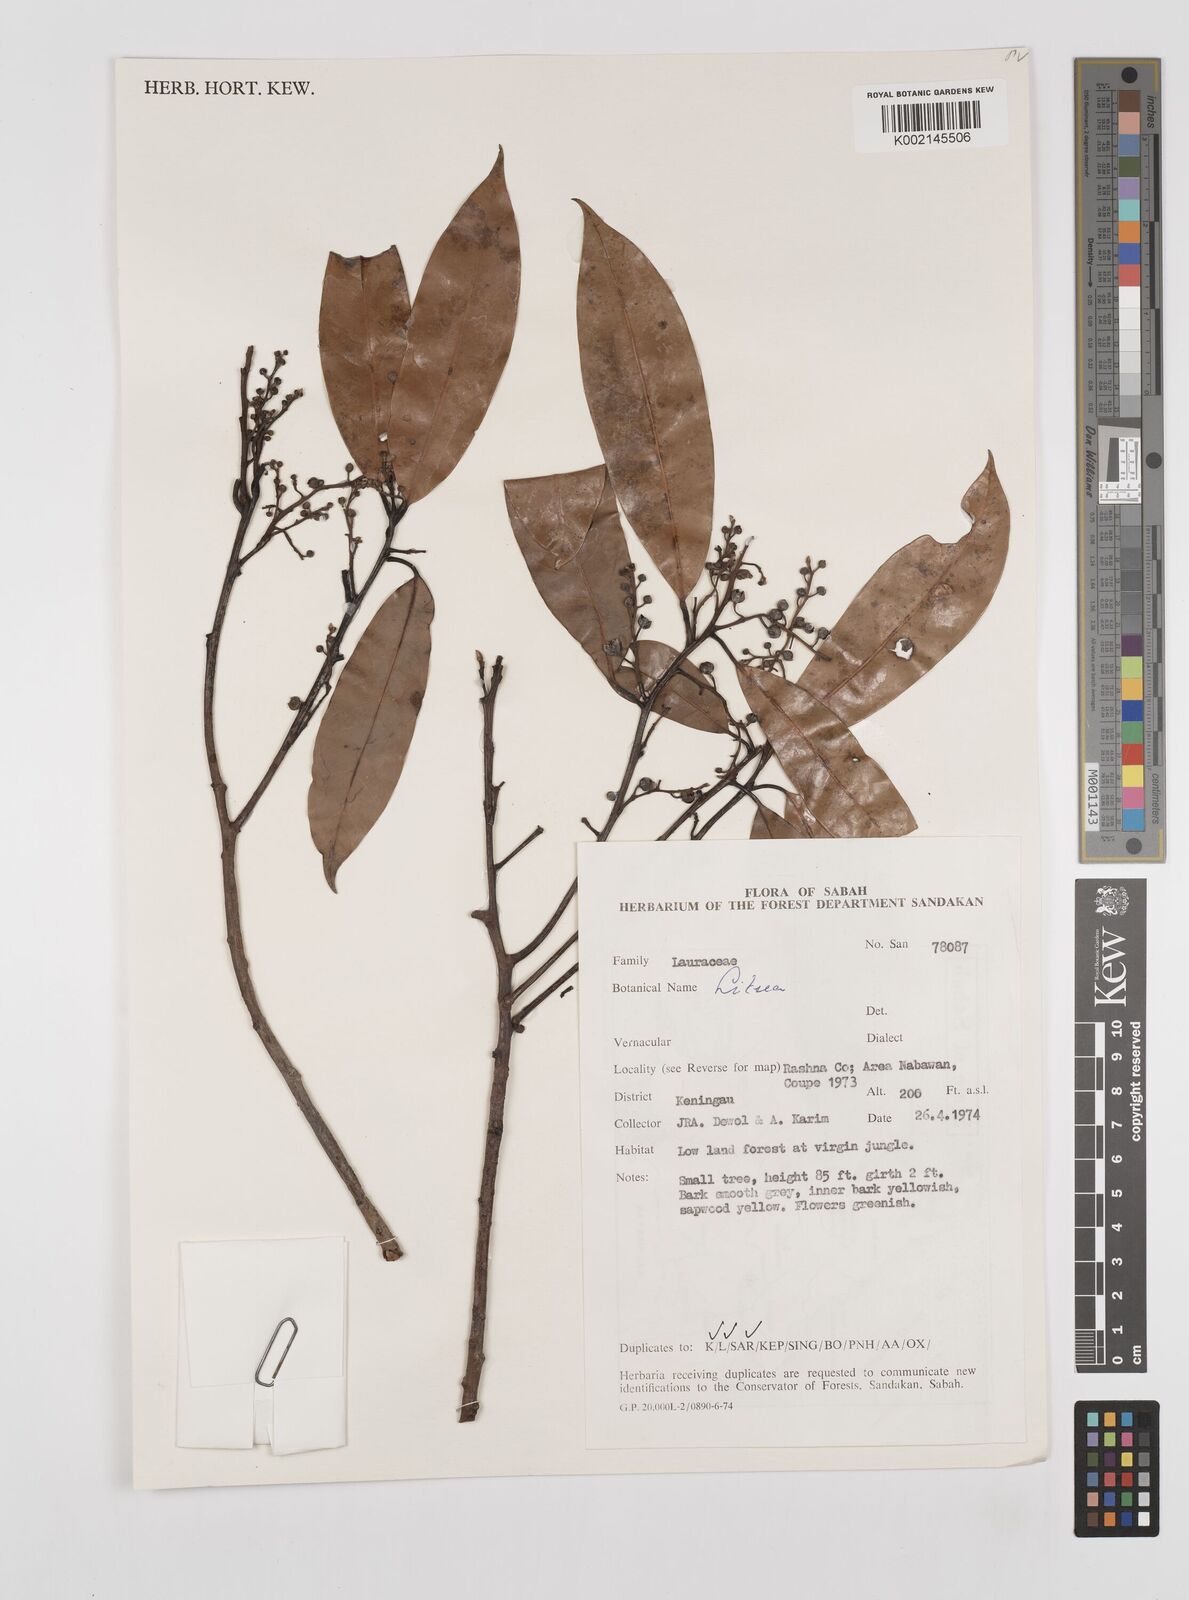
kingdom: Plantae
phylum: Tracheophyta
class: Magnoliopsida
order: Laurales
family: Lauraceae
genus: Litsea
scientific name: Litsea
